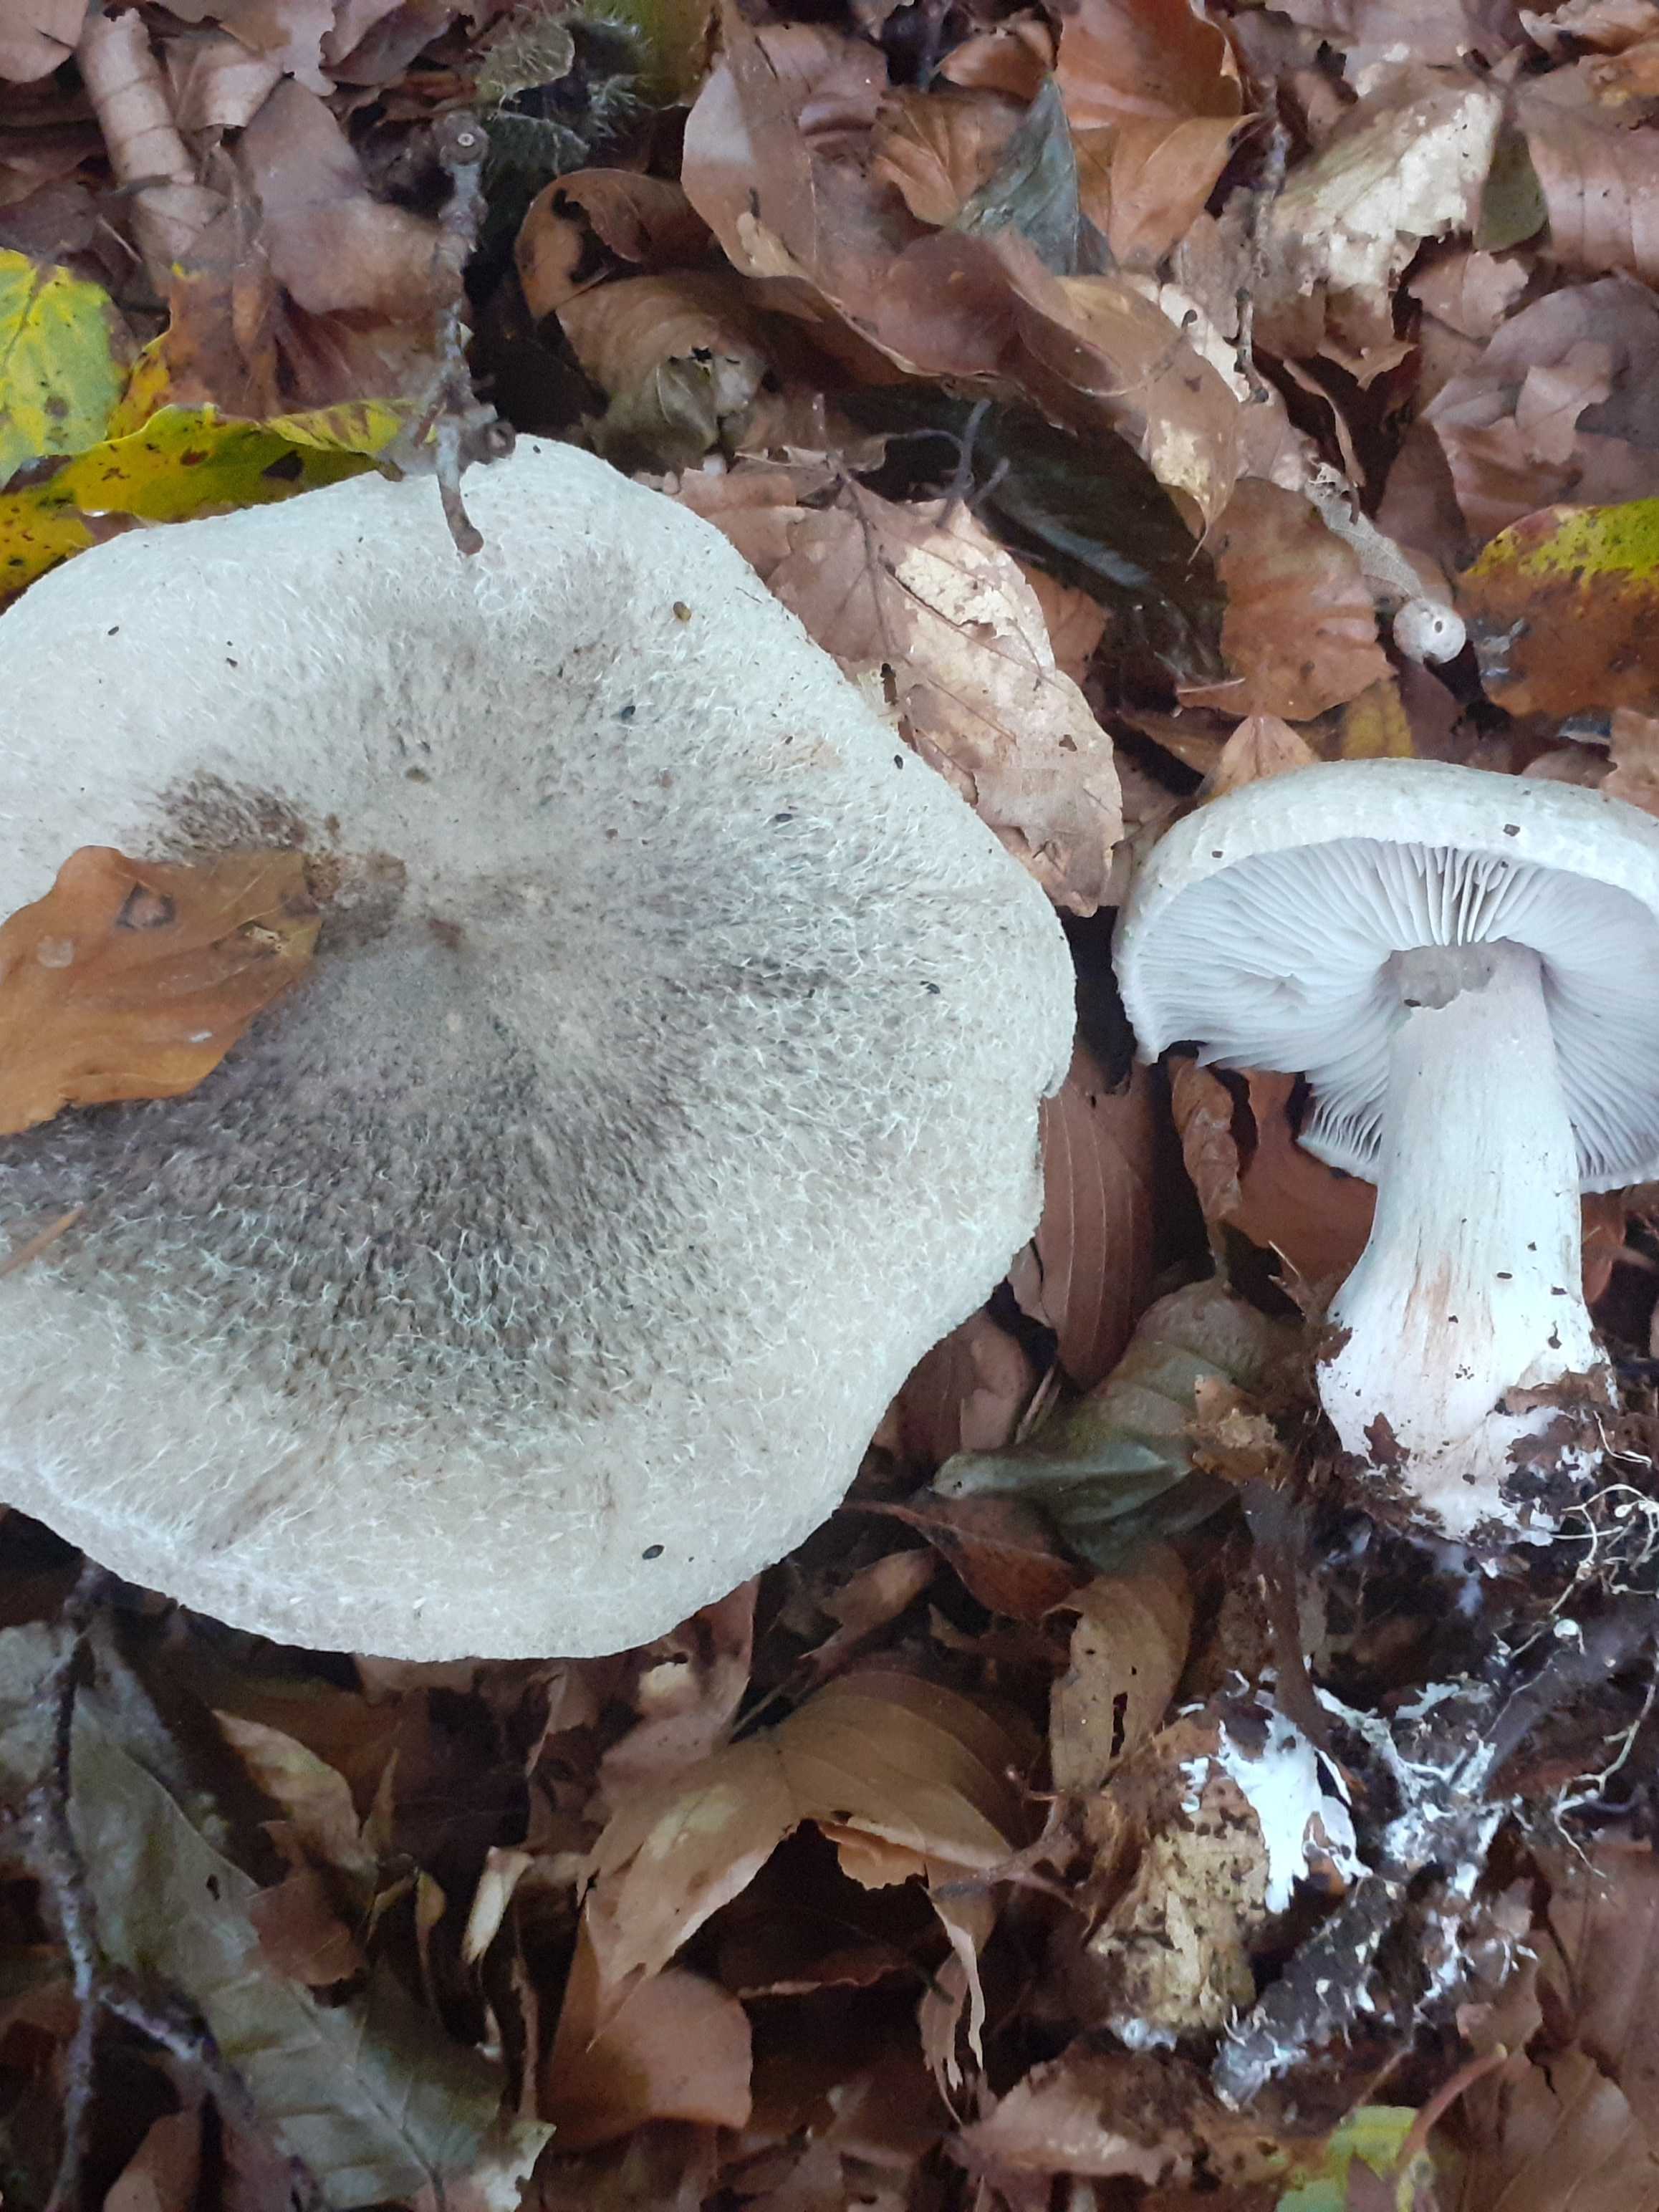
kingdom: Fungi
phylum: Basidiomycota
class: Agaricomycetes
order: Agaricales
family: Tricholomataceae
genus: Tricholoma
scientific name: Tricholoma atrosquamosum
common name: sortskællet ridderhat
